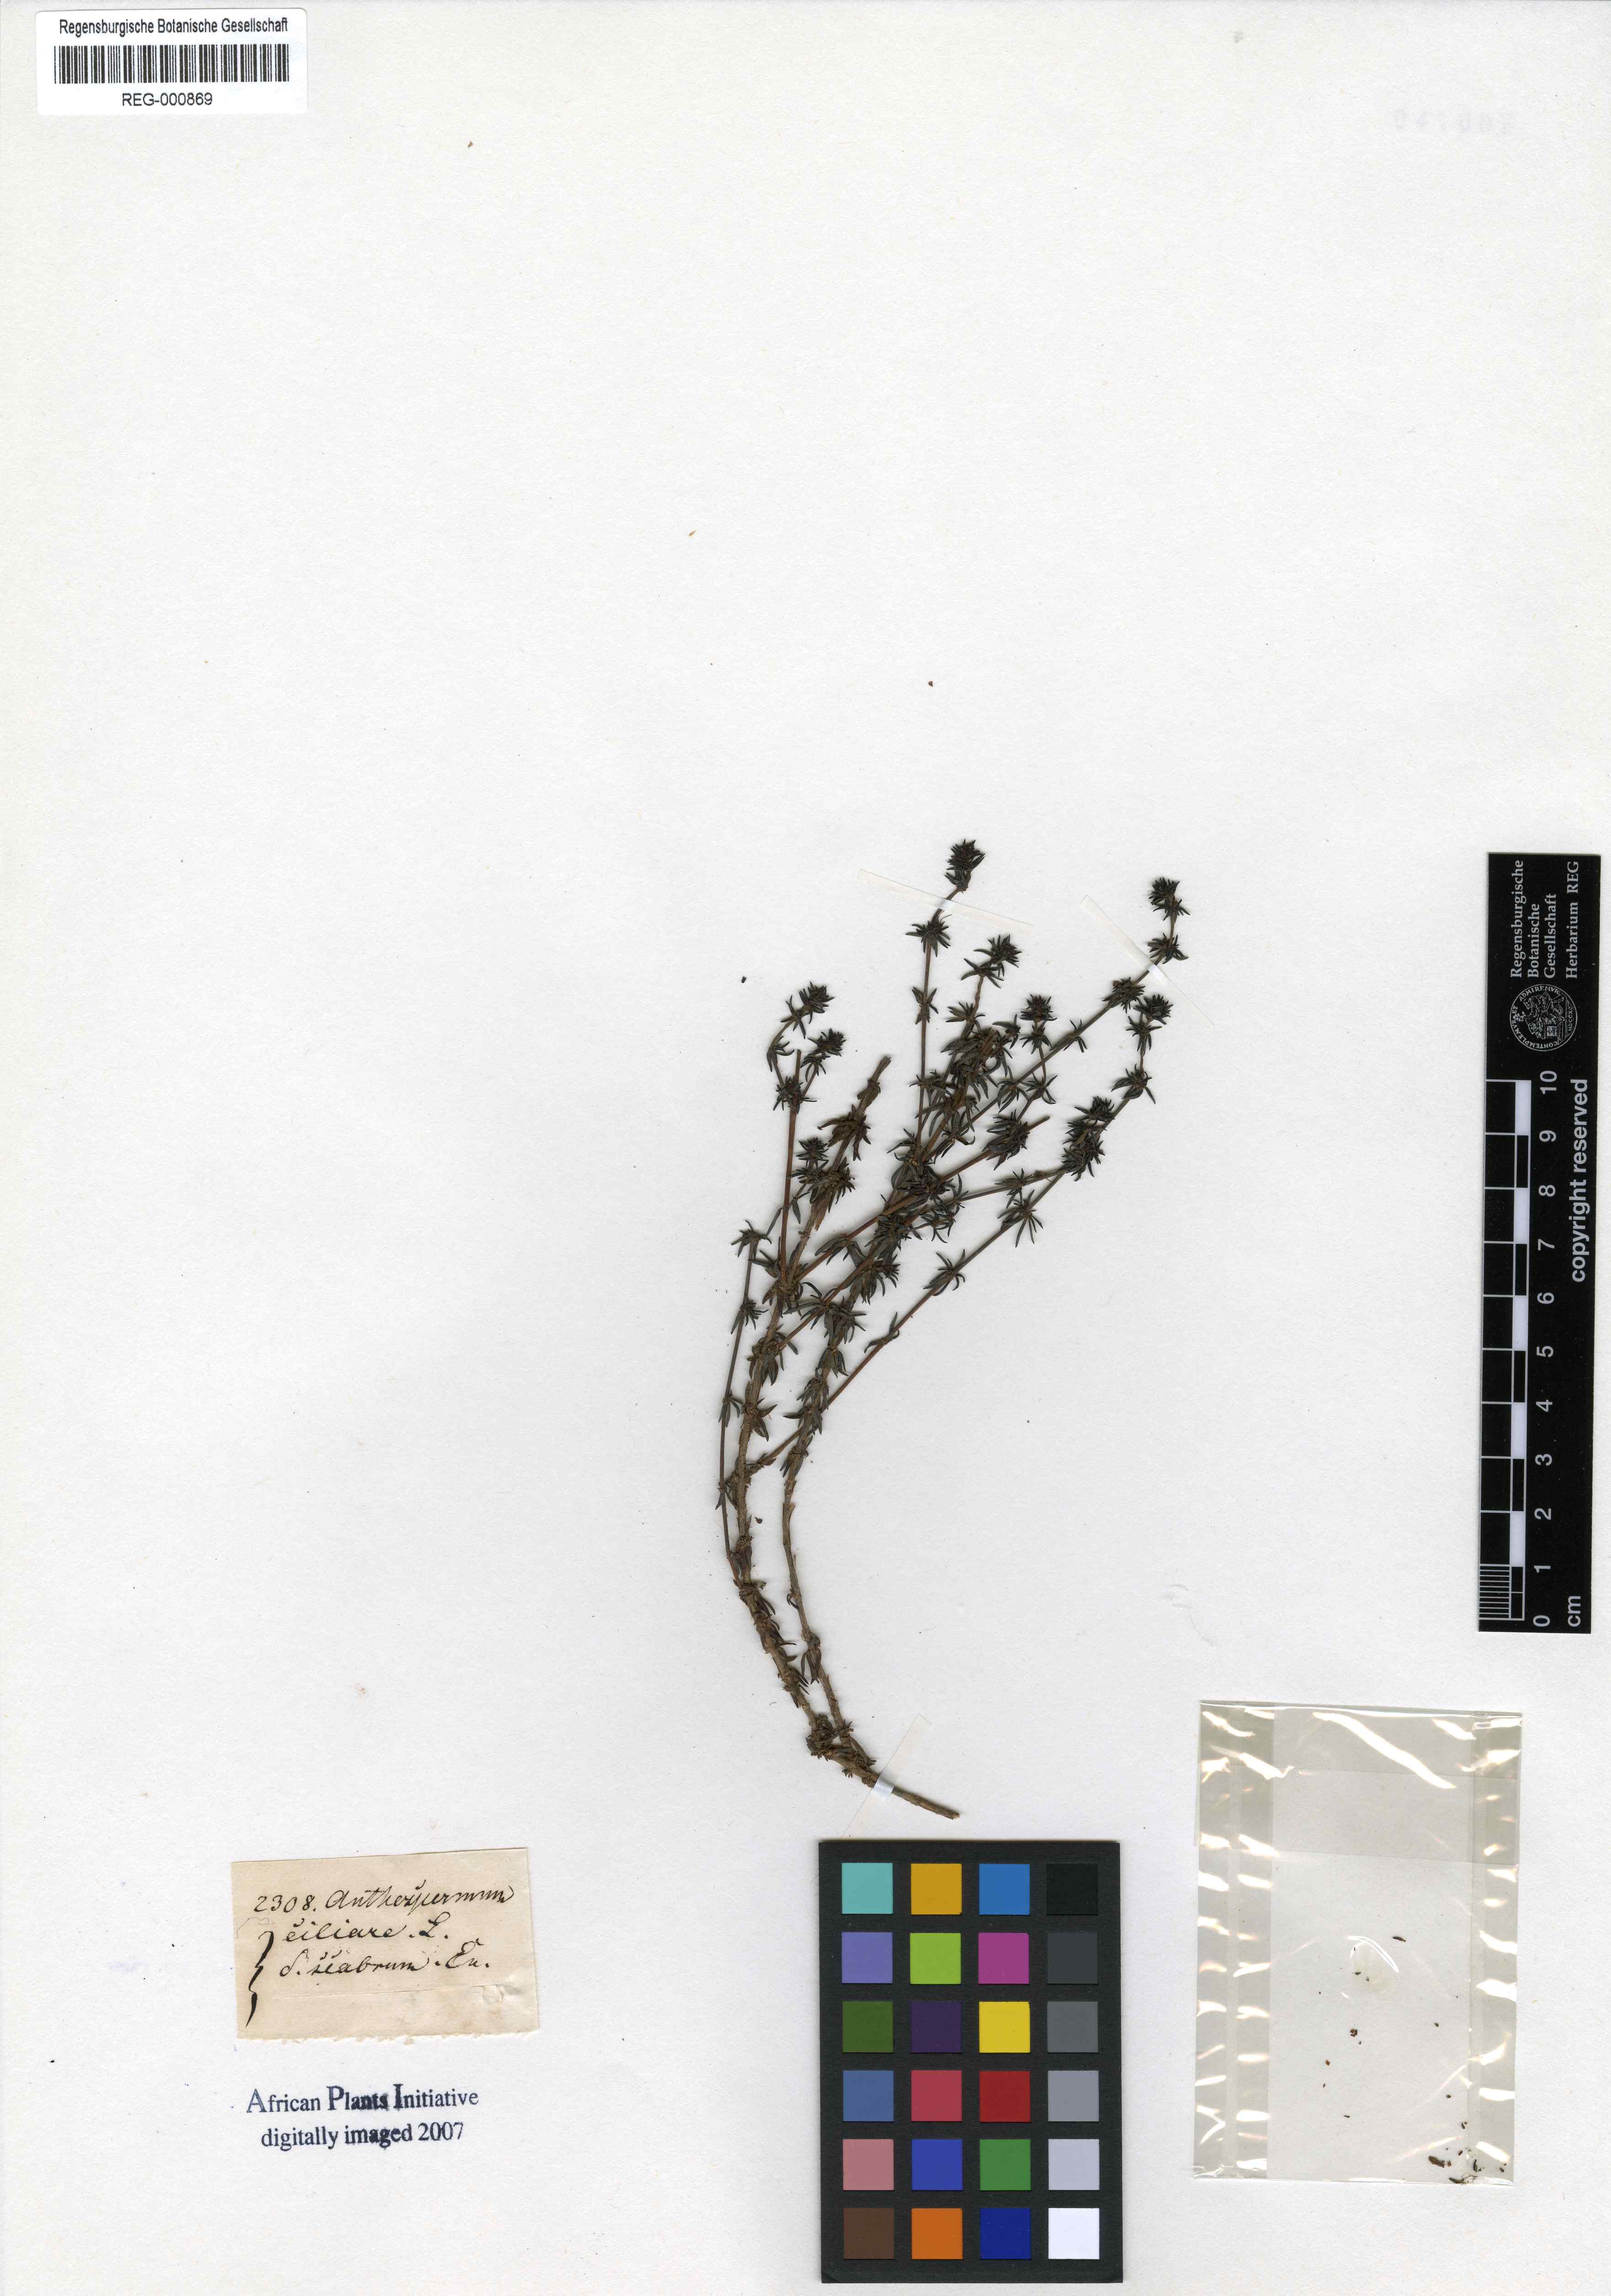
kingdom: Plantae
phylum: Tracheophyta
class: Magnoliopsida
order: Gentianales
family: Rubiaceae
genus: Anthospermum
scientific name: Anthospermum galioides
